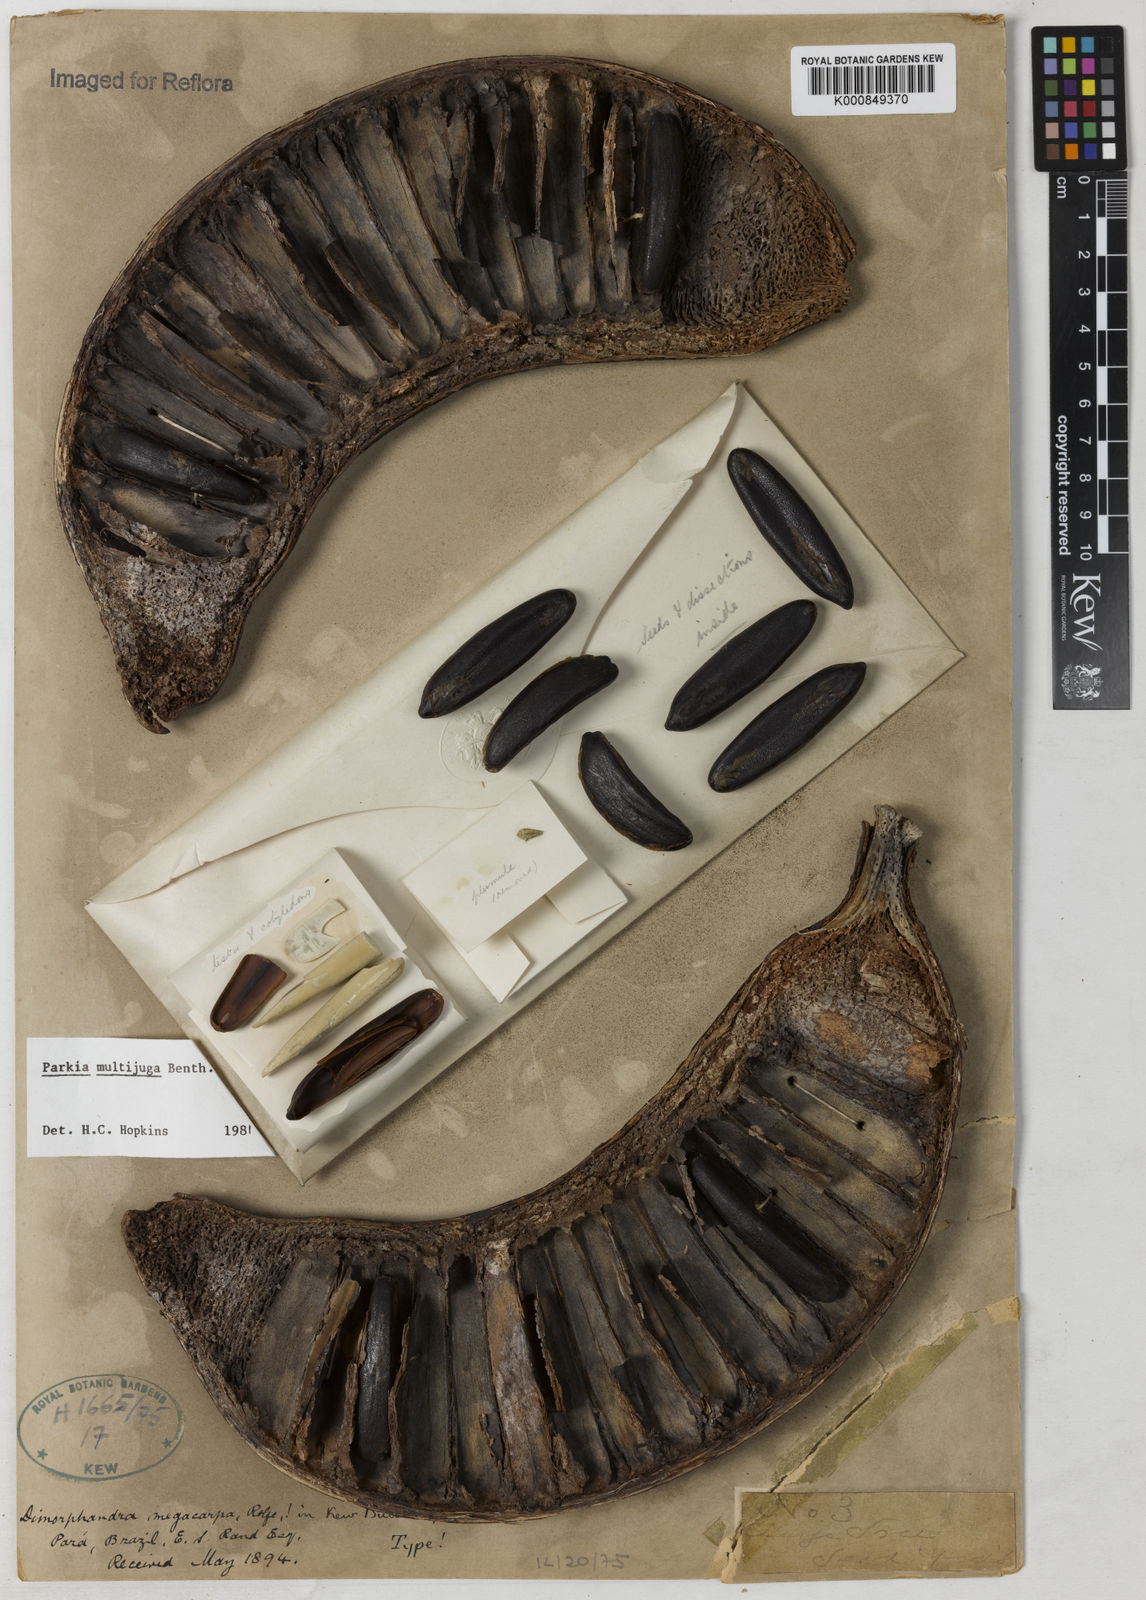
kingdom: Plantae
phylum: Tracheophyta
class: Magnoliopsida
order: Fabales
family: Fabaceae
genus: Parkia
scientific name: Parkia multijuga
